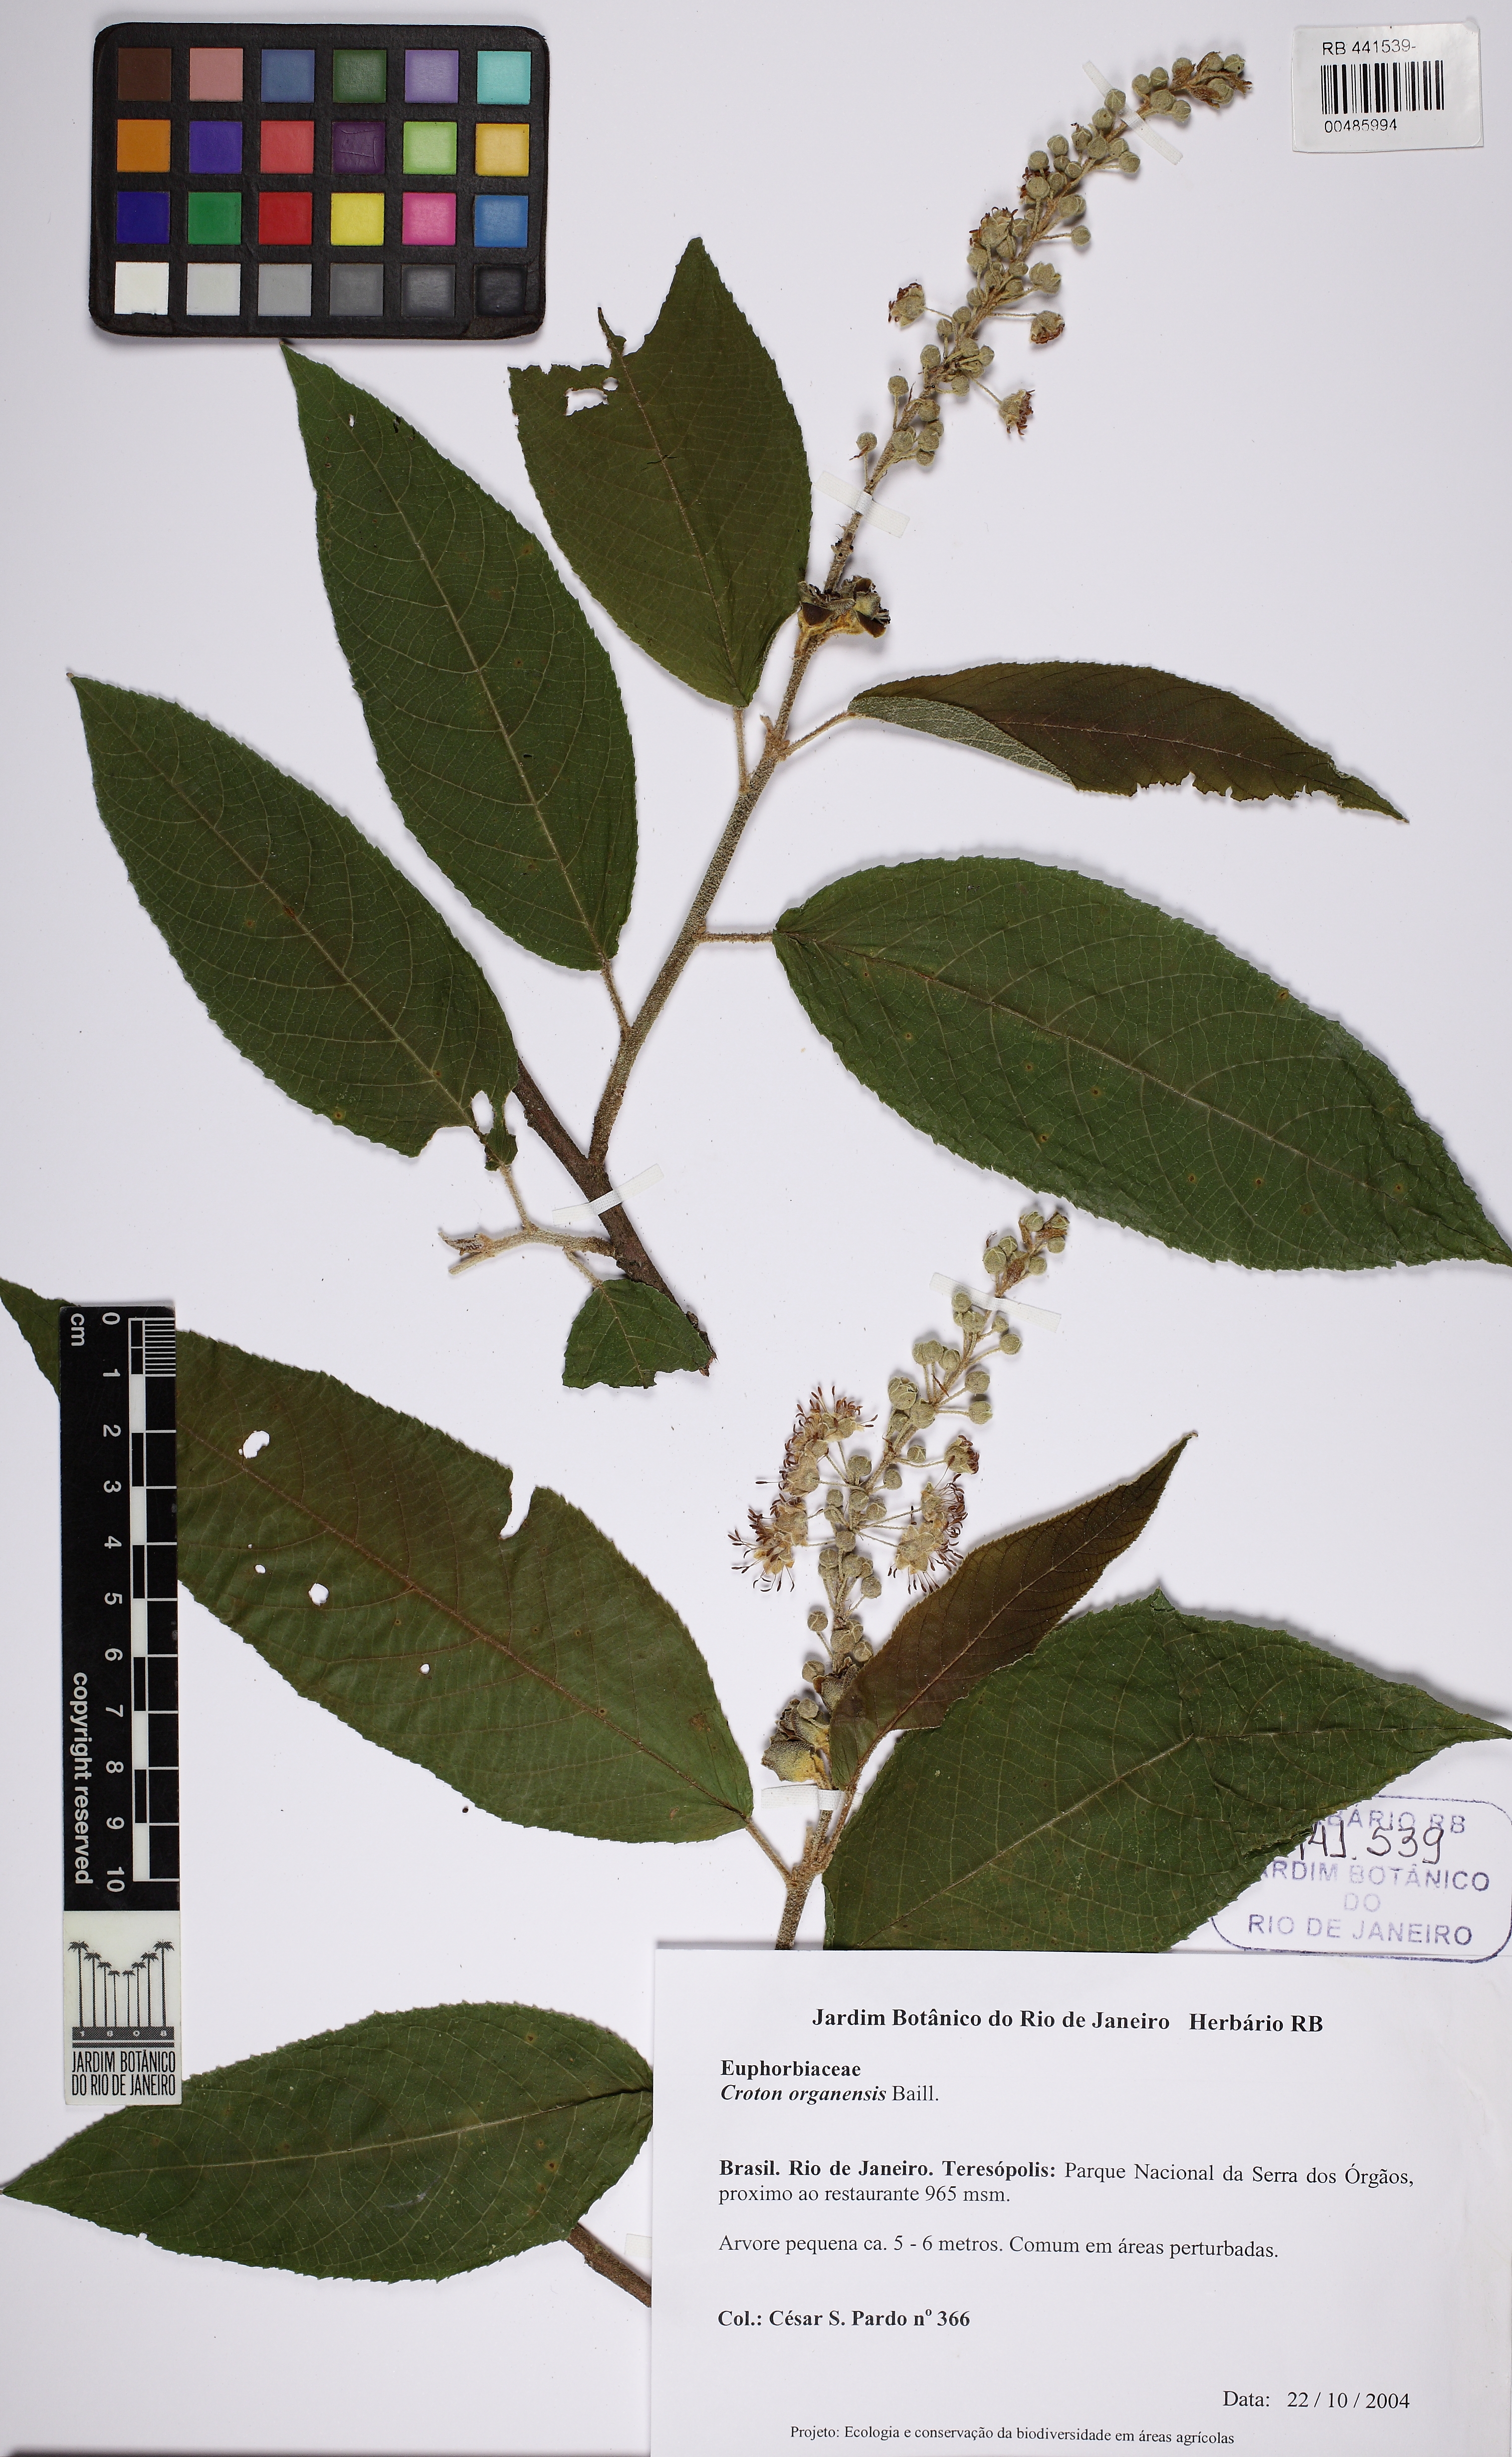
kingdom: Plantae
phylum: Tracheophyta
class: Magnoliopsida
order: Malpighiales
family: Euphorbiaceae
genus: Croton
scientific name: Croton organensis
